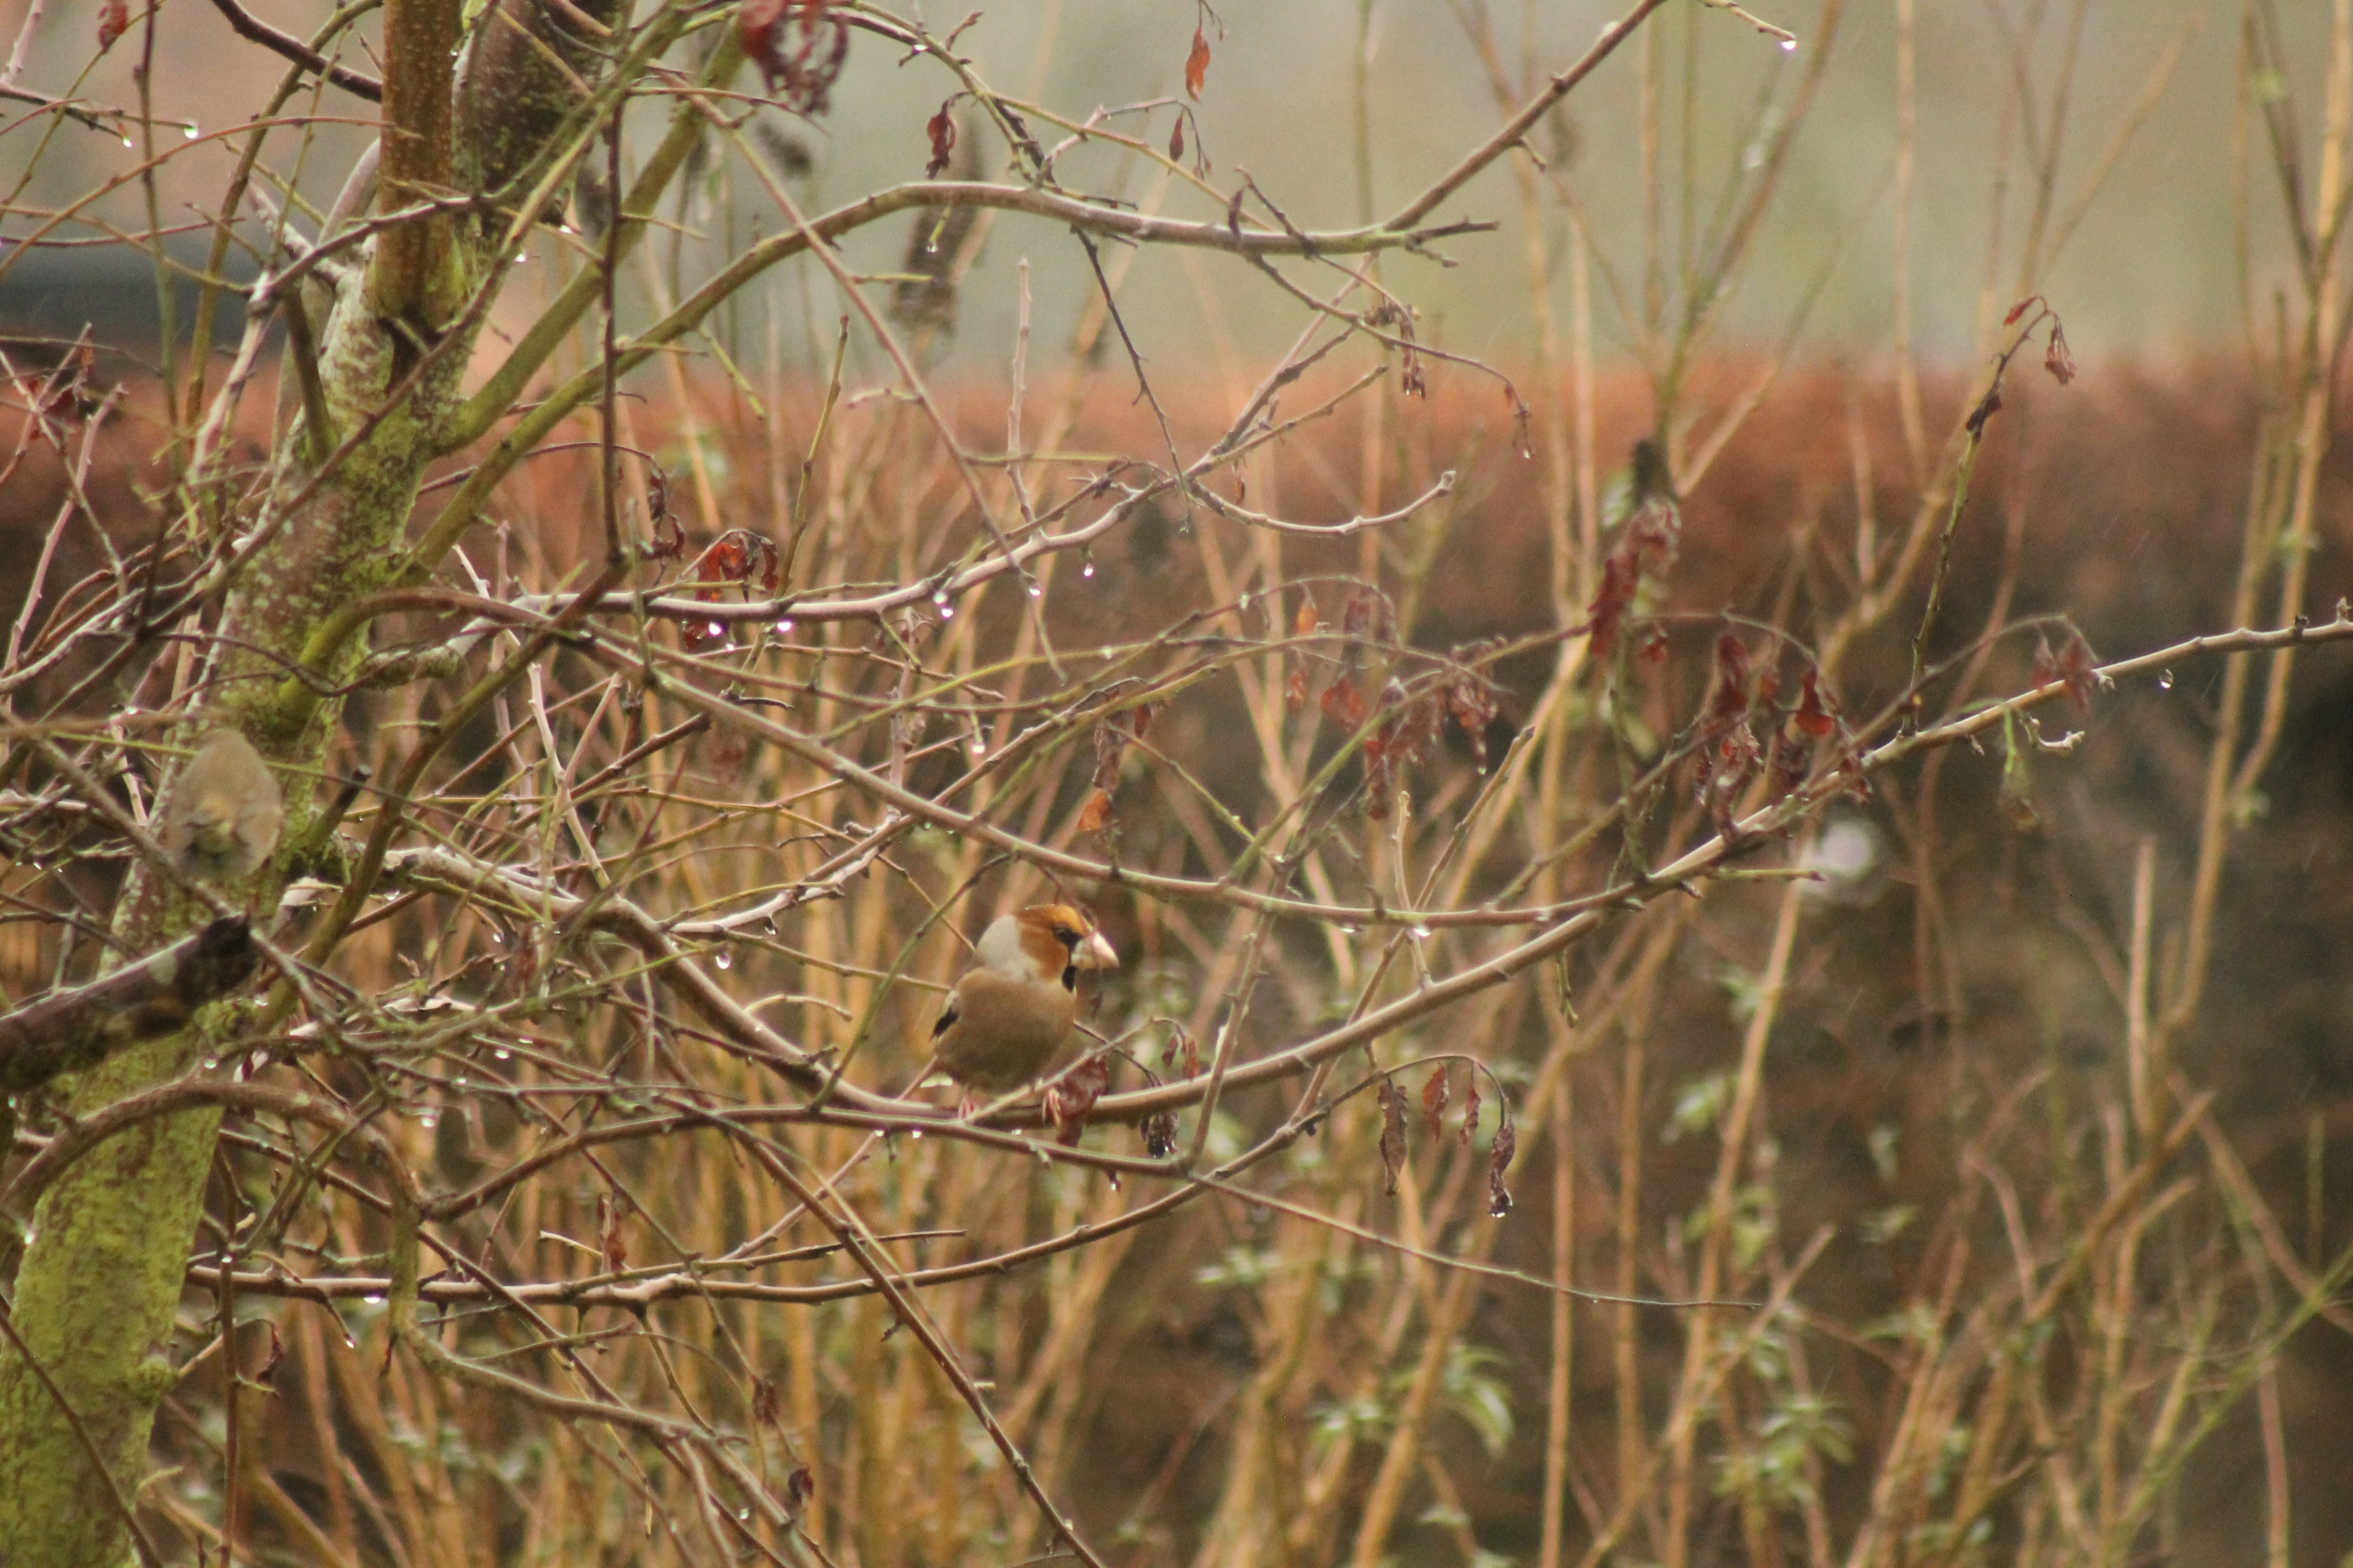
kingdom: Animalia
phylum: Chordata
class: Aves
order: Passeriformes
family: Fringillidae
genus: Coccothraustes
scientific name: Coccothraustes coccothraustes
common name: Kernebider
